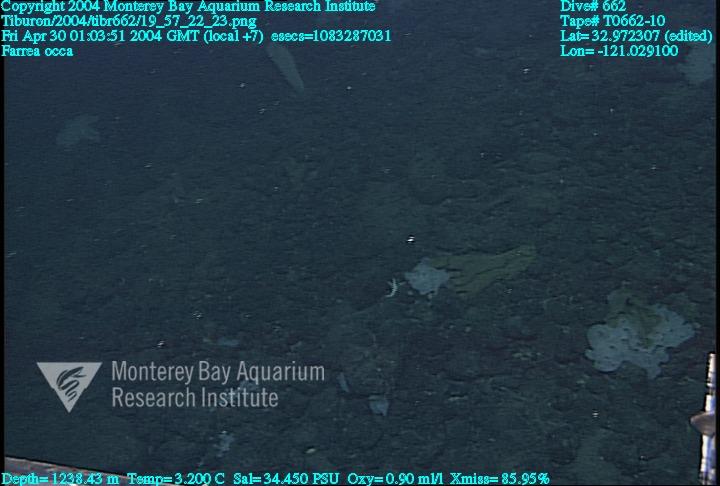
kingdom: Animalia
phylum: Porifera
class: Hexactinellida
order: Sceptrulophora
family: Farreidae
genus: Farrea
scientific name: Farrea occa
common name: Reversed glass sponge
